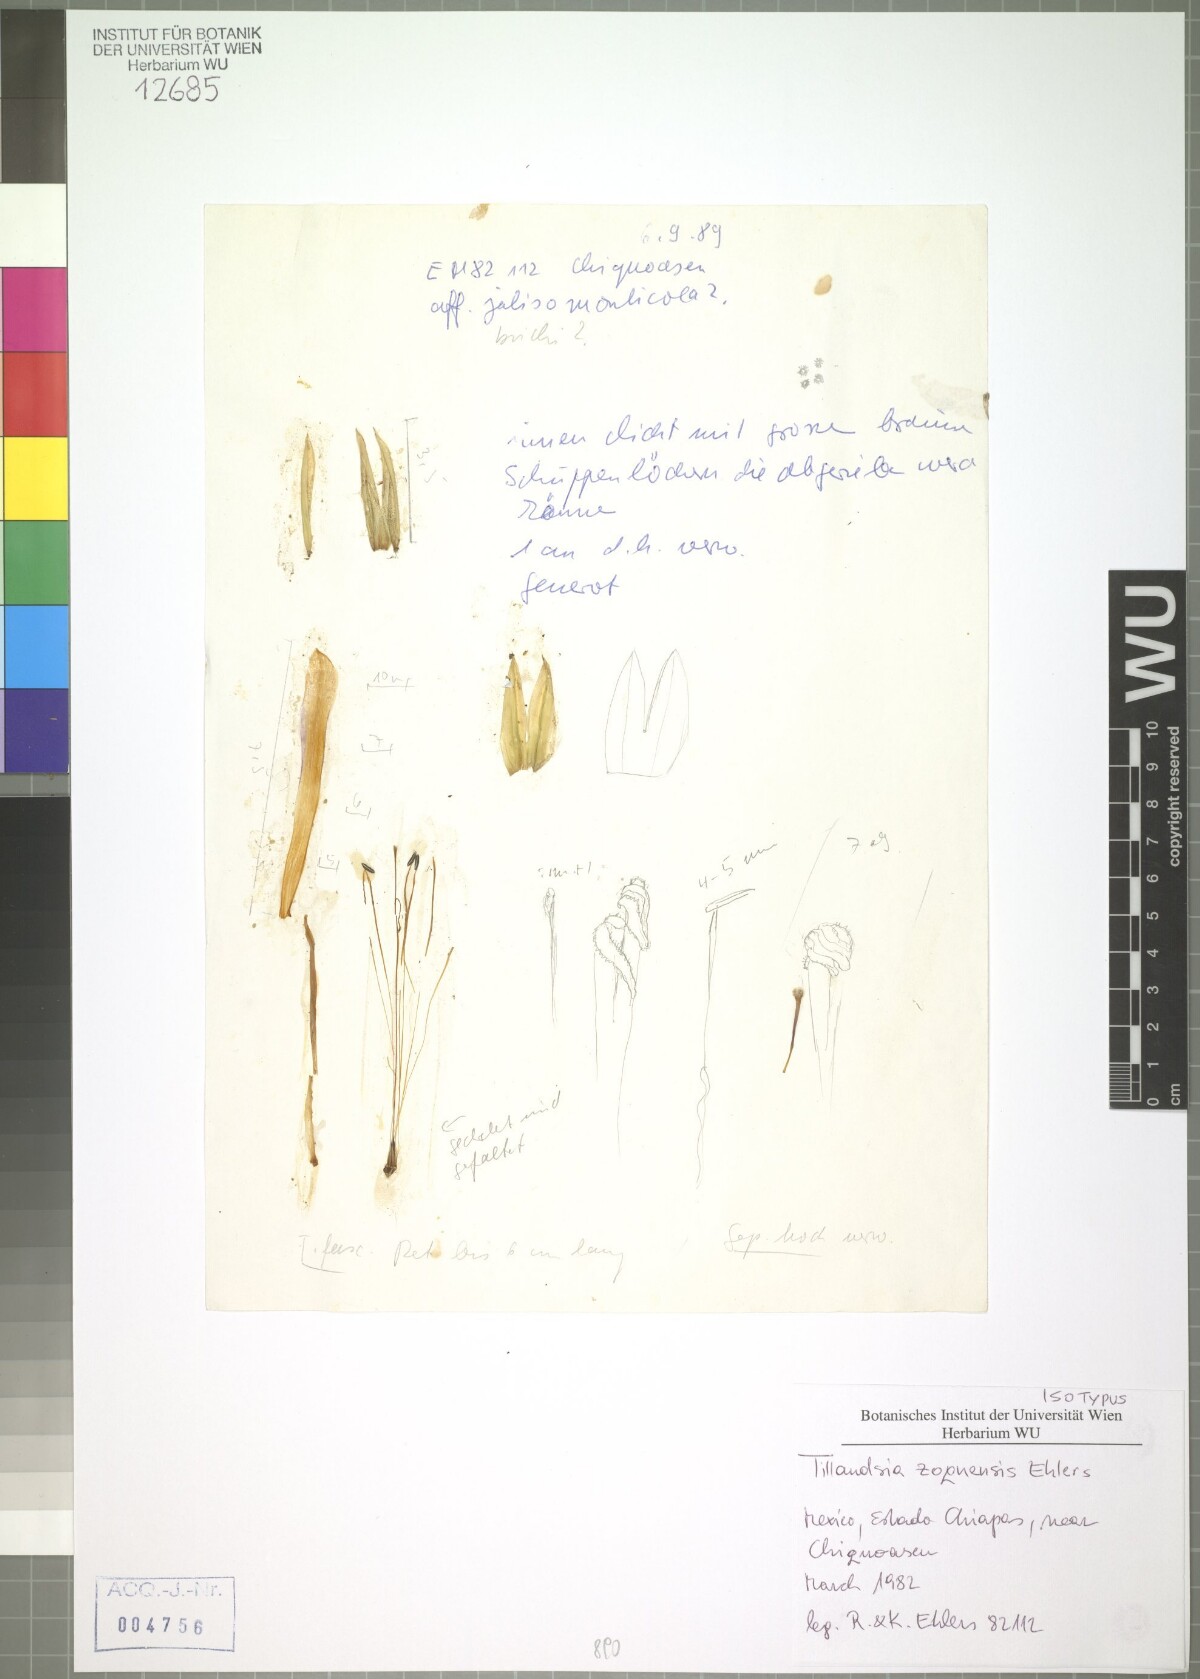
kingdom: Plantae
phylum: Tracheophyta
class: Liliopsida
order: Poales
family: Bromeliaceae
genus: Tillandsia
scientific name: Tillandsia zoquensis
